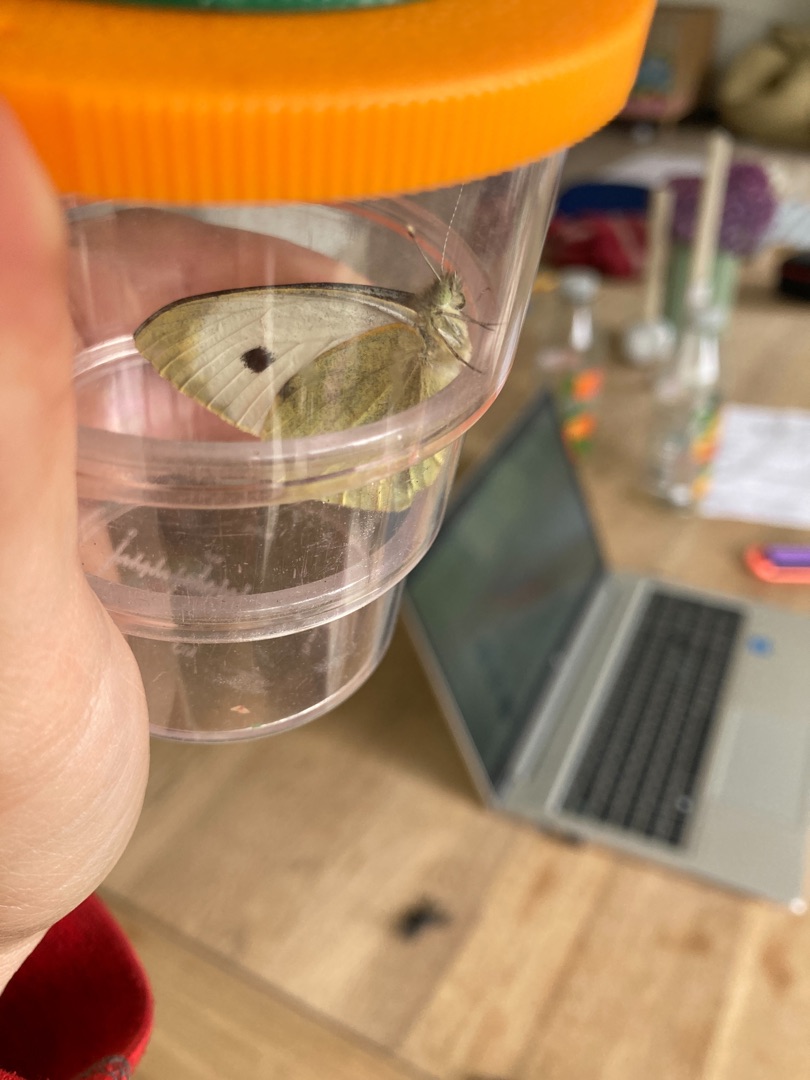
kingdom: Animalia
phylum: Arthropoda
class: Insecta
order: Lepidoptera
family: Pieridae
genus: Pieris
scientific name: Pieris brassicae
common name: Stor kålsommerfugl
